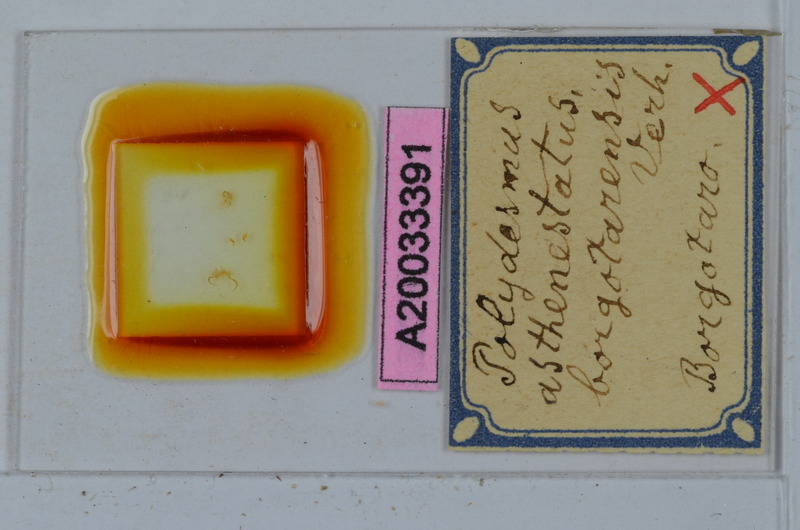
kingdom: Animalia
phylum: Arthropoda
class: Diplopoda
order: Polydesmida
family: Polydesmidae
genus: Polydesmus
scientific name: Polydesmus asthenestatus
